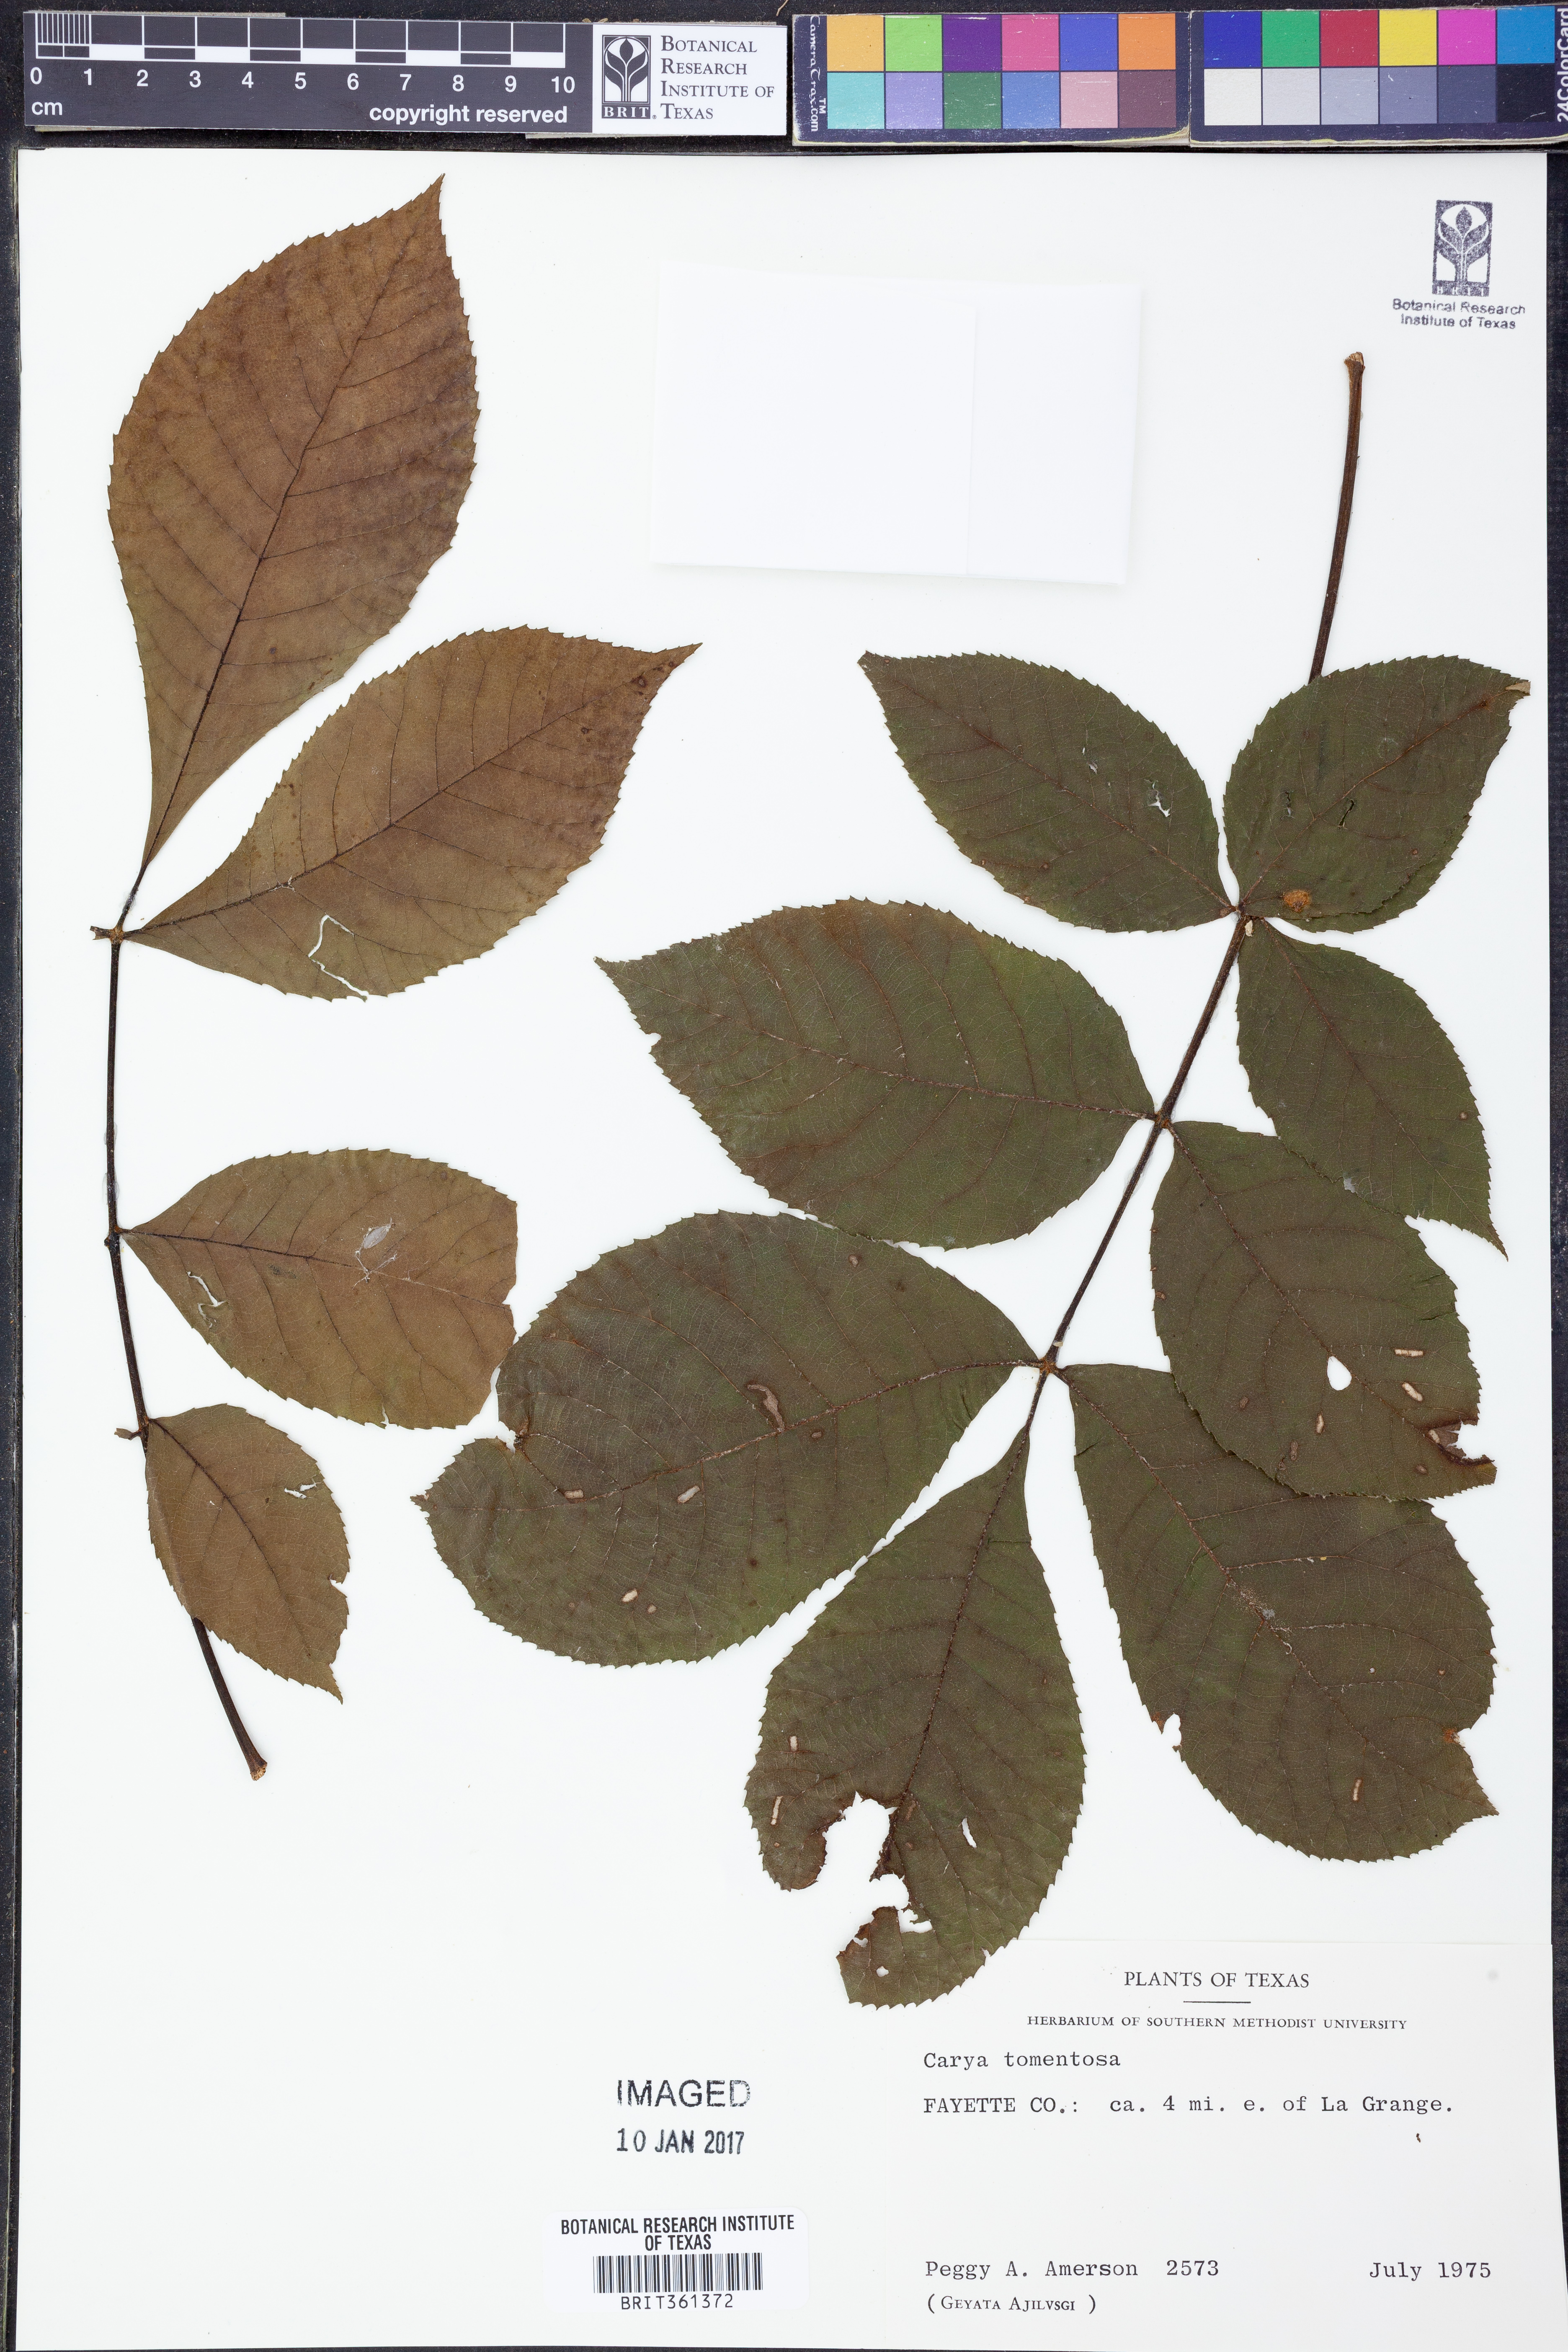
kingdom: Plantae
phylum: Tracheophyta
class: Magnoliopsida
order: Fagales
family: Juglandaceae
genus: Carya
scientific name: Carya alba
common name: Mockernut hickory
